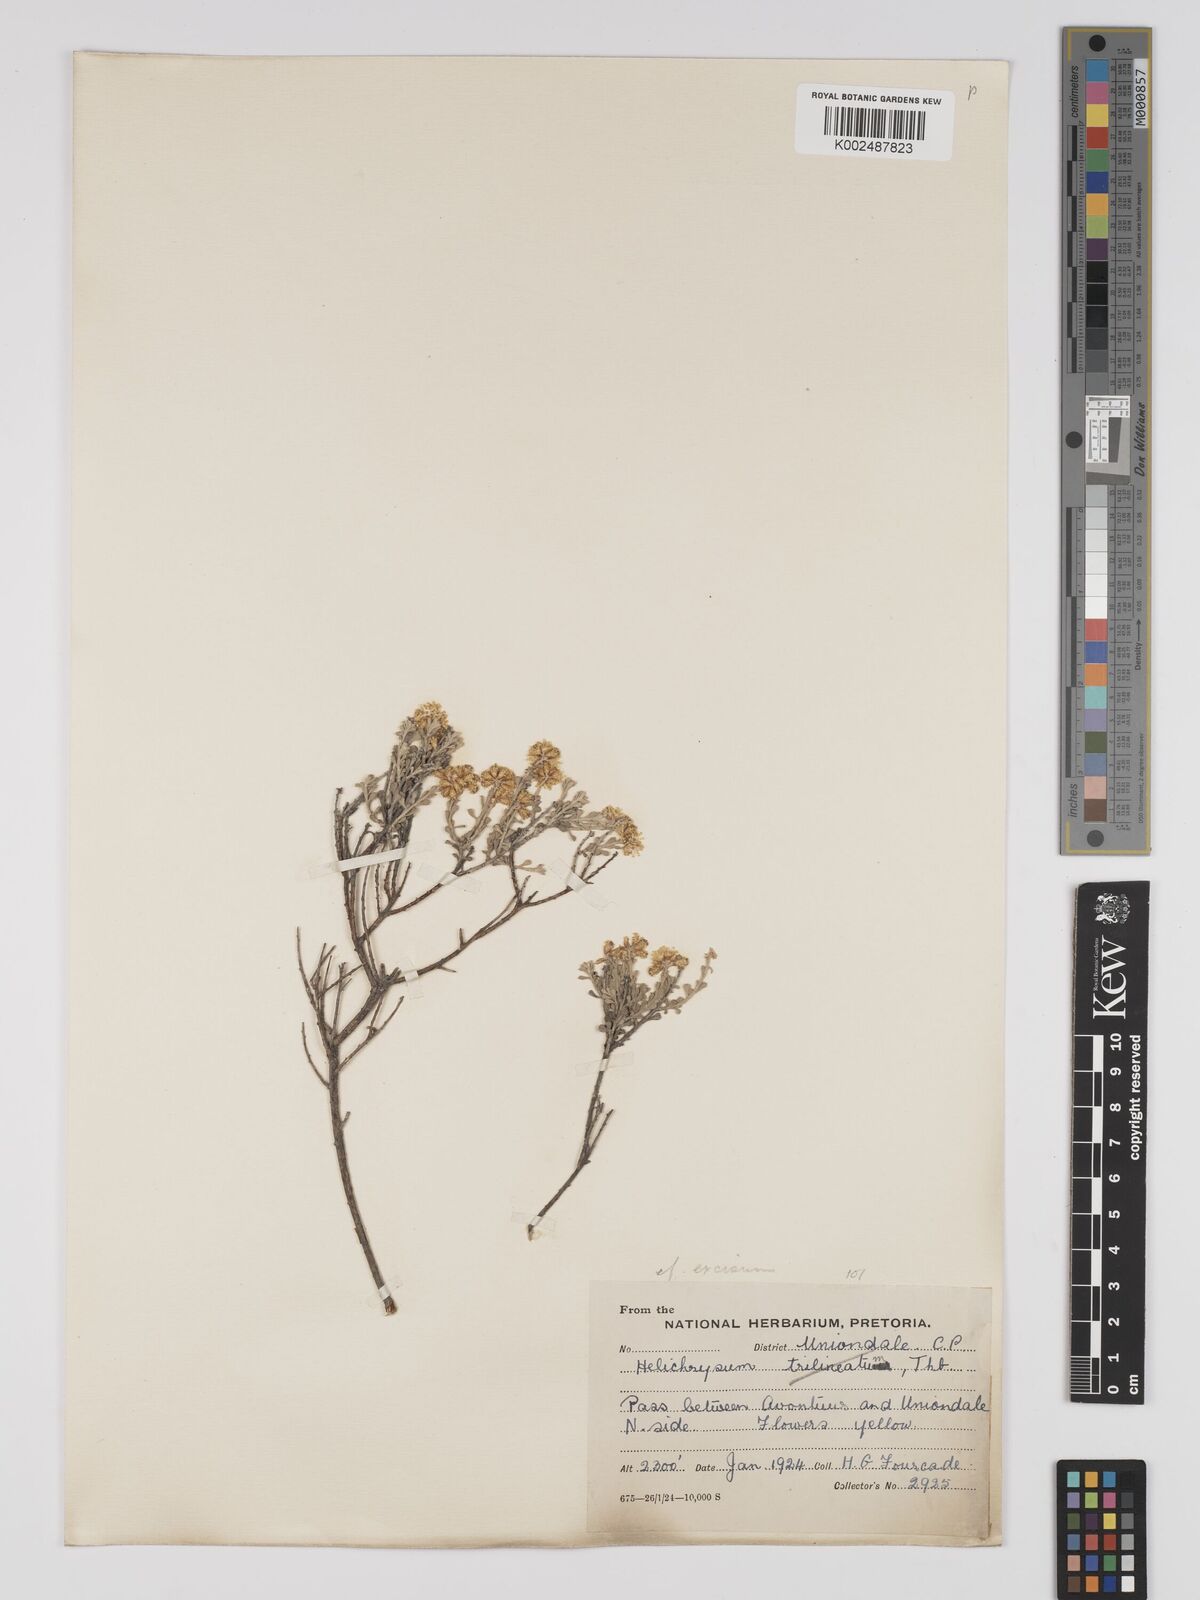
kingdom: Plantae
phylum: Tracheophyta
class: Magnoliopsida
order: Asterales
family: Asteraceae
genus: Helichrysum
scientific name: Helichrysum excisum
